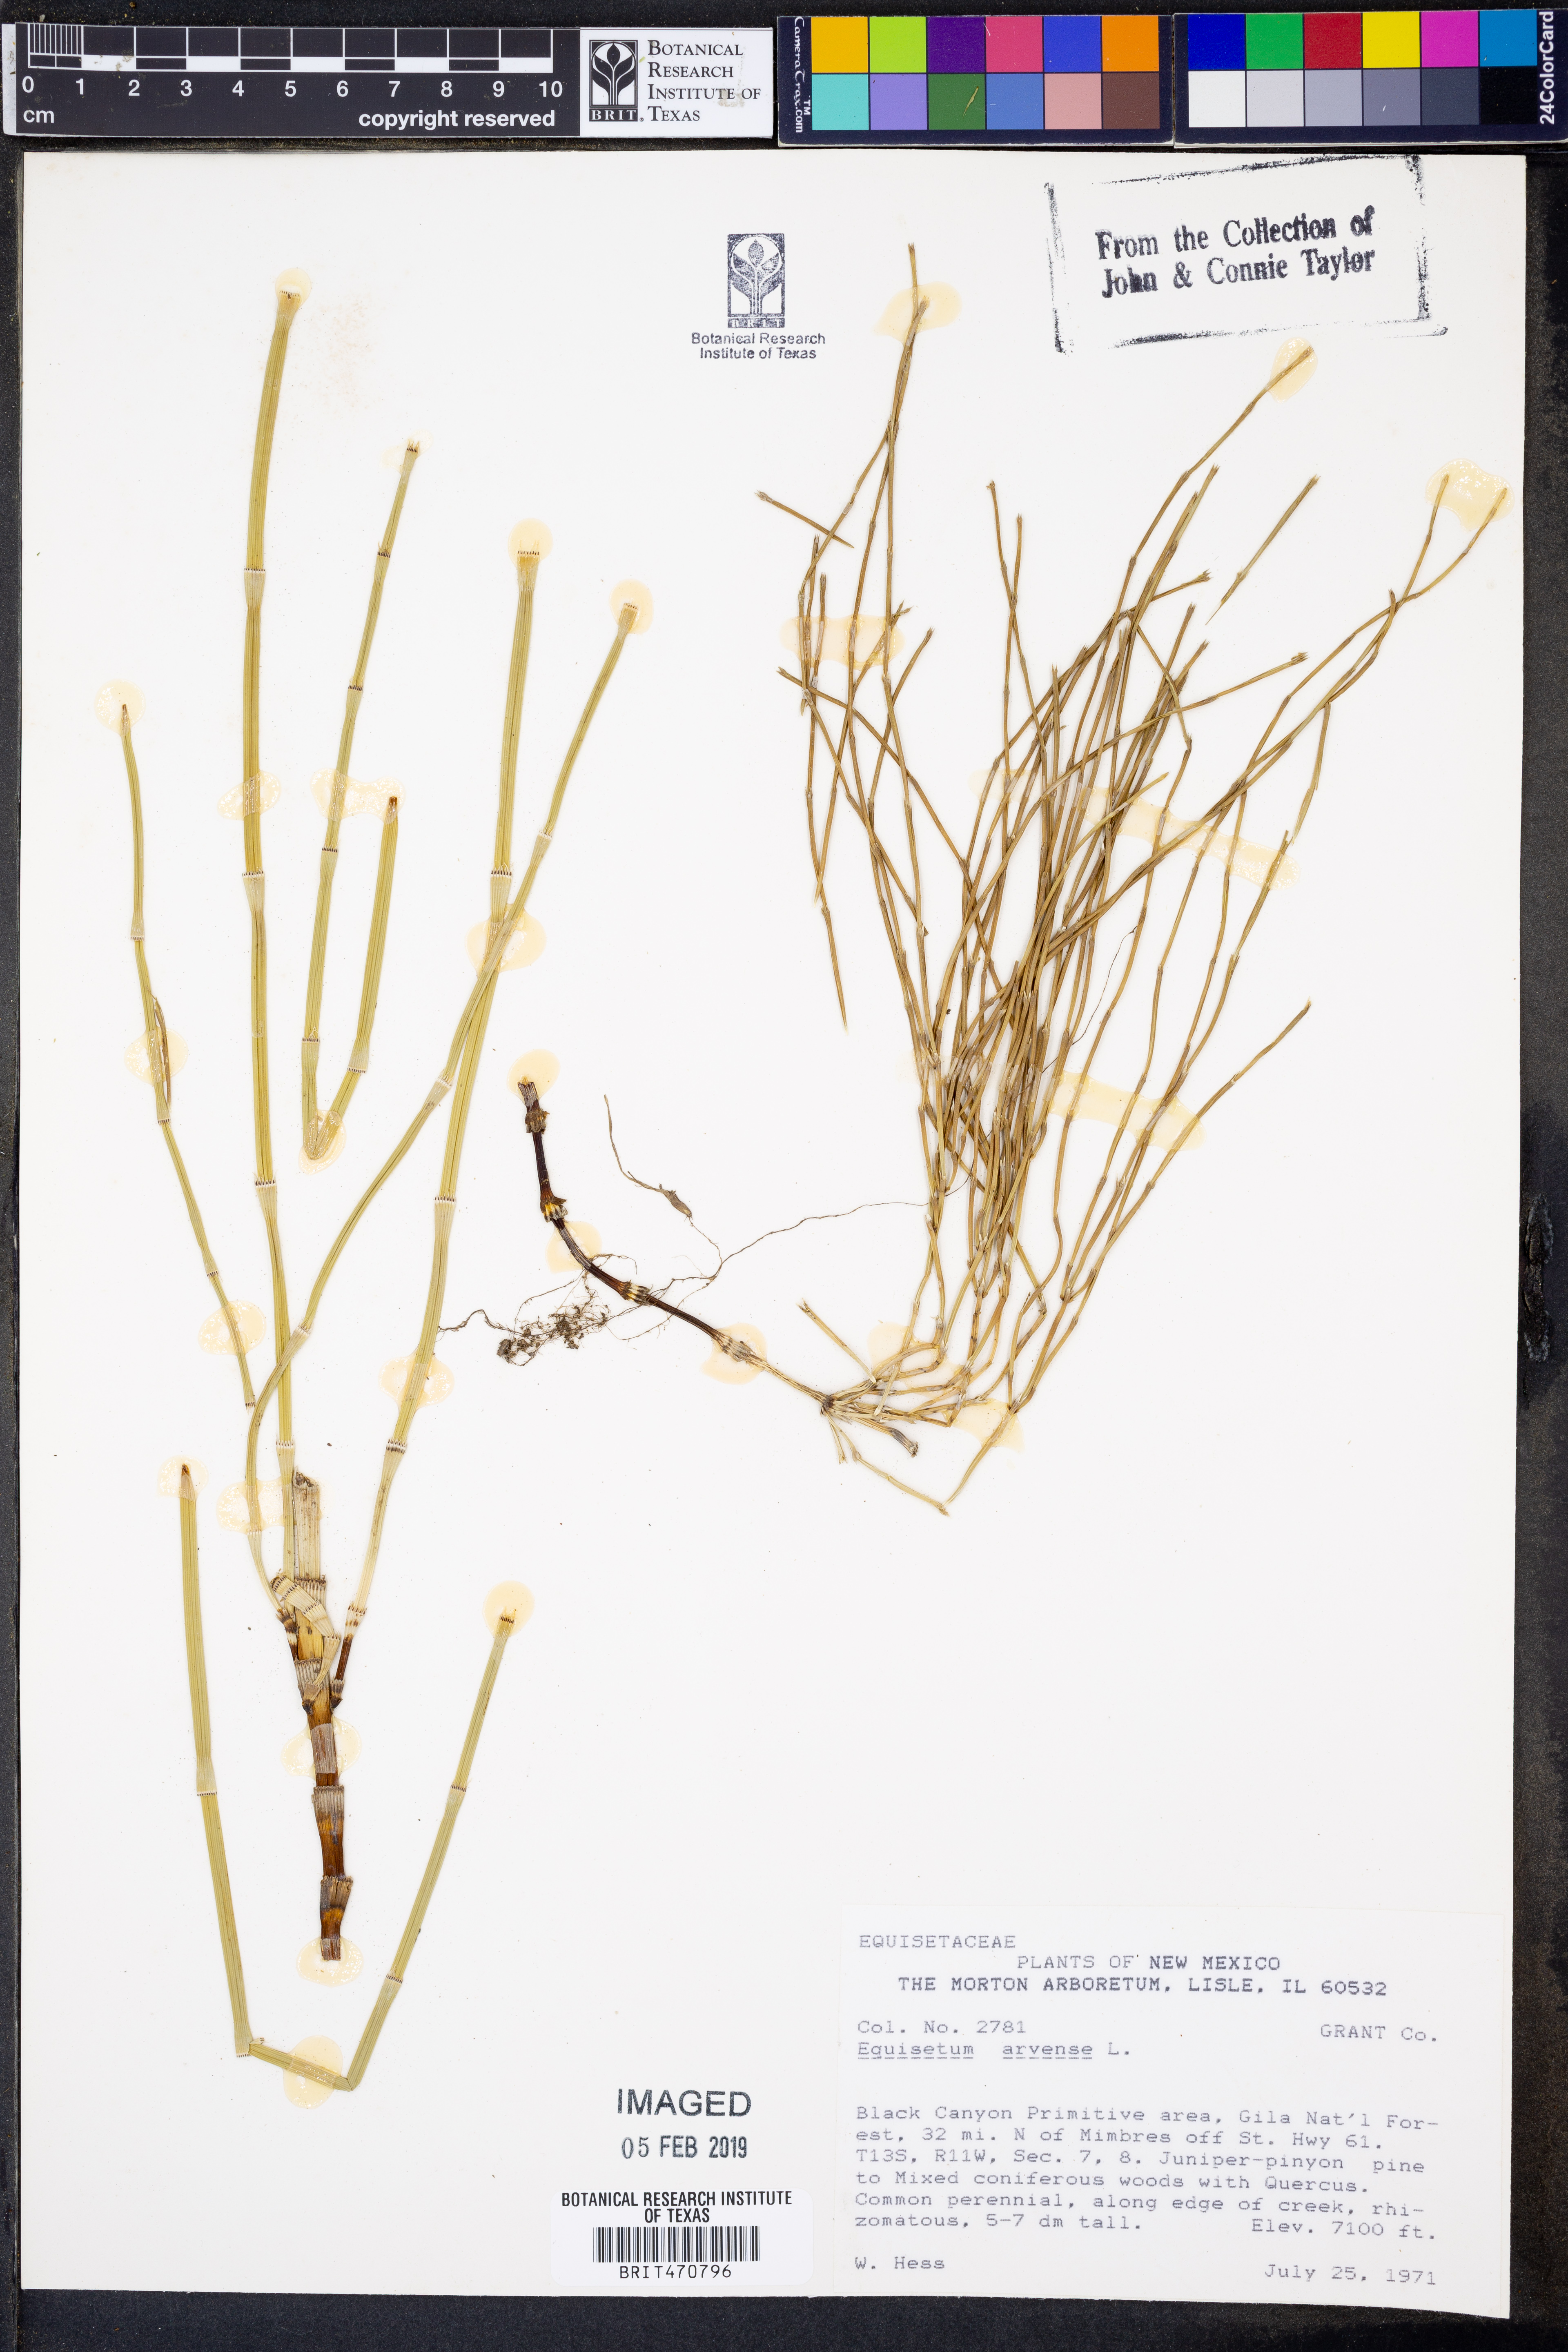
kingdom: Plantae
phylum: Tracheophyta
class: Polypodiopsida
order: Equisetales
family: Equisetaceae
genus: Equisetum
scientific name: Equisetum arvense
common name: Field horsetail
